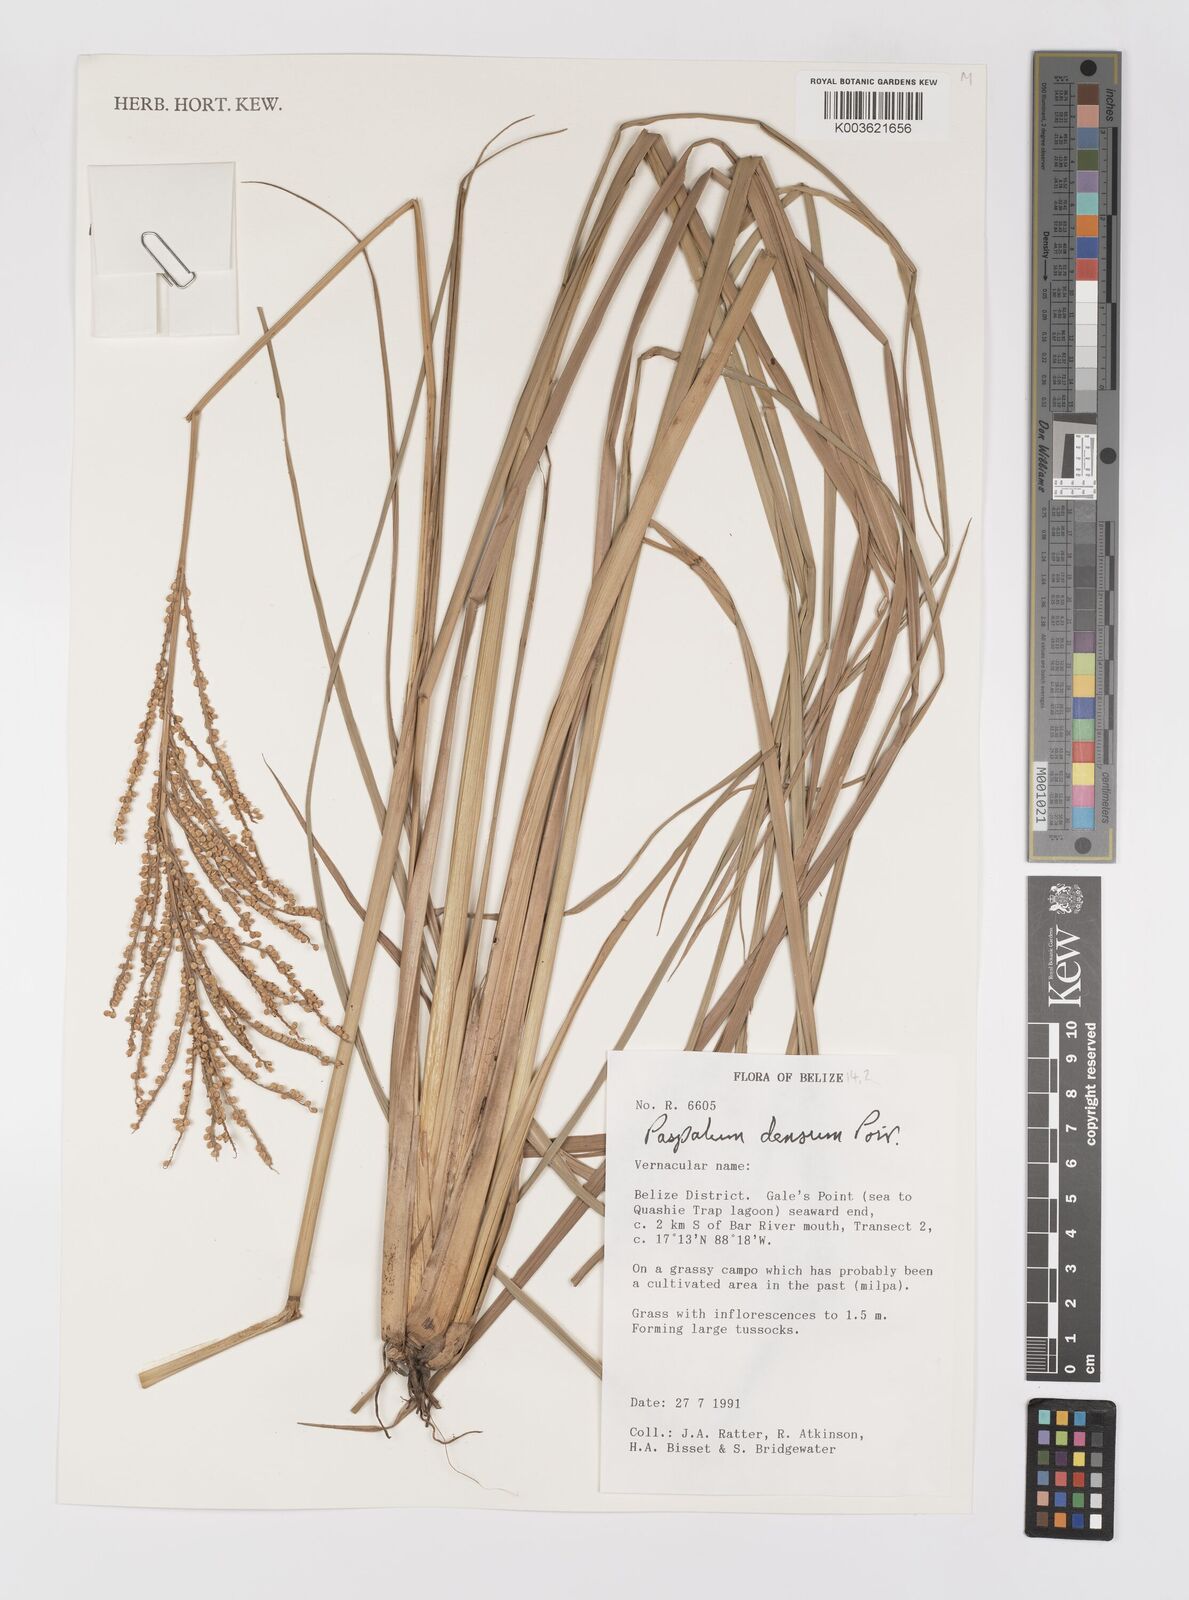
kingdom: Plantae
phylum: Tracheophyta
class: Liliopsida
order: Poales
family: Poaceae
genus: Paspalum
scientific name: Paspalum densum
